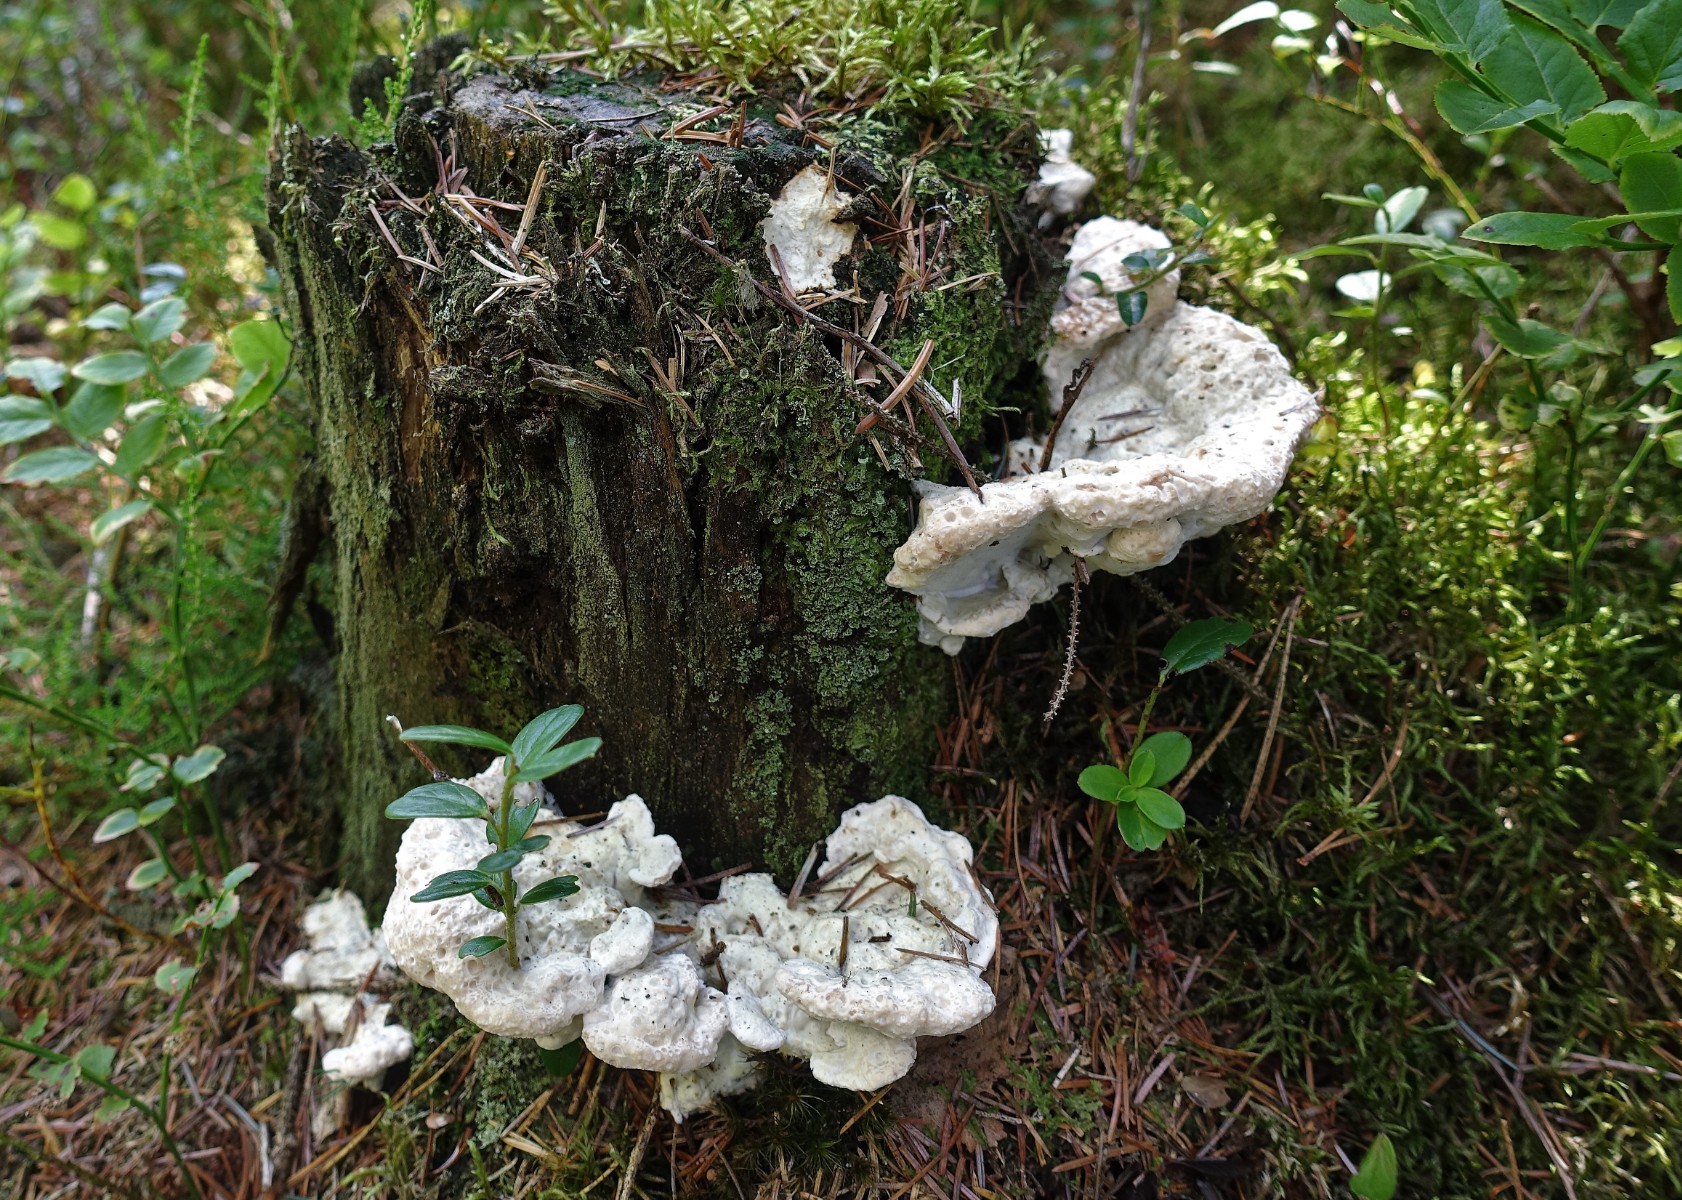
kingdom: Fungi
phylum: Basidiomycota
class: Agaricomycetes
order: Polyporales
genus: Calcipostia
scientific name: Calcipostia guttulata
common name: dråbe-kødporesvamp
